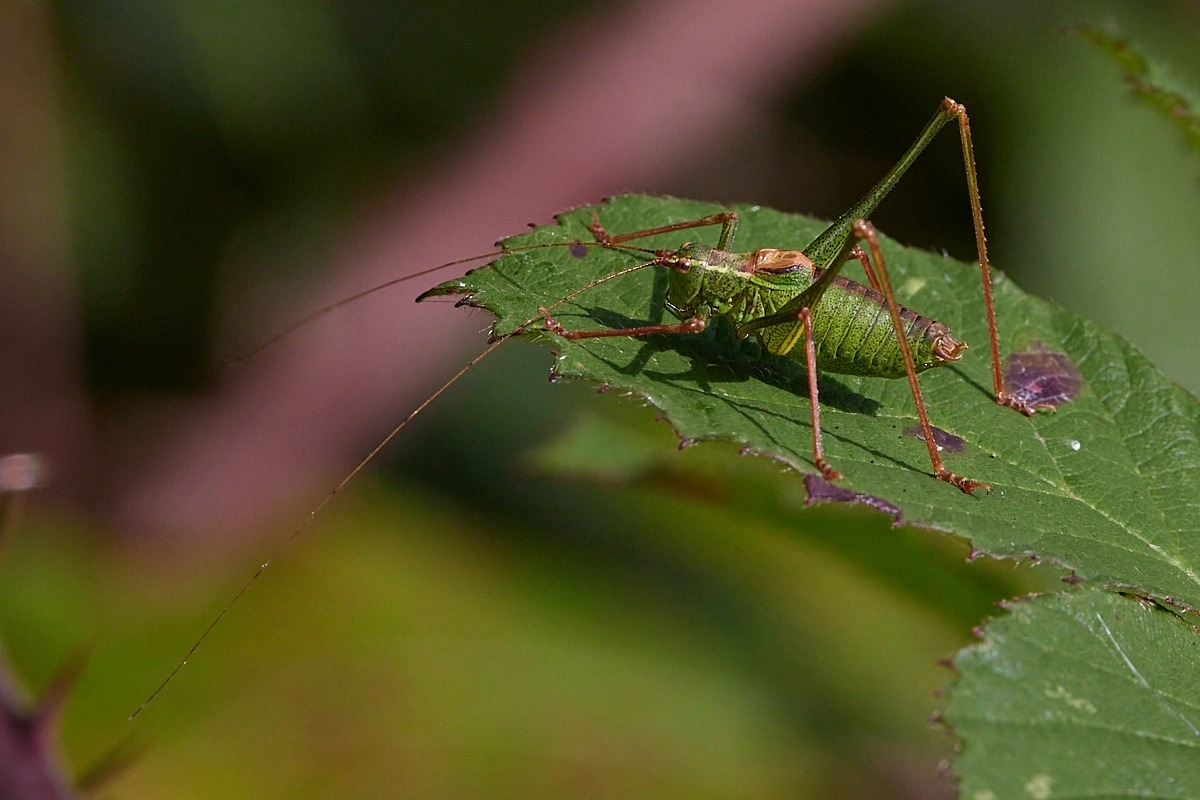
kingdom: Animalia
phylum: Arthropoda
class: Insecta
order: Orthoptera
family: Tettigoniidae
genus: Leptophyes
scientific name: Leptophyes punctatissima
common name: Krumknivgræshoppe
